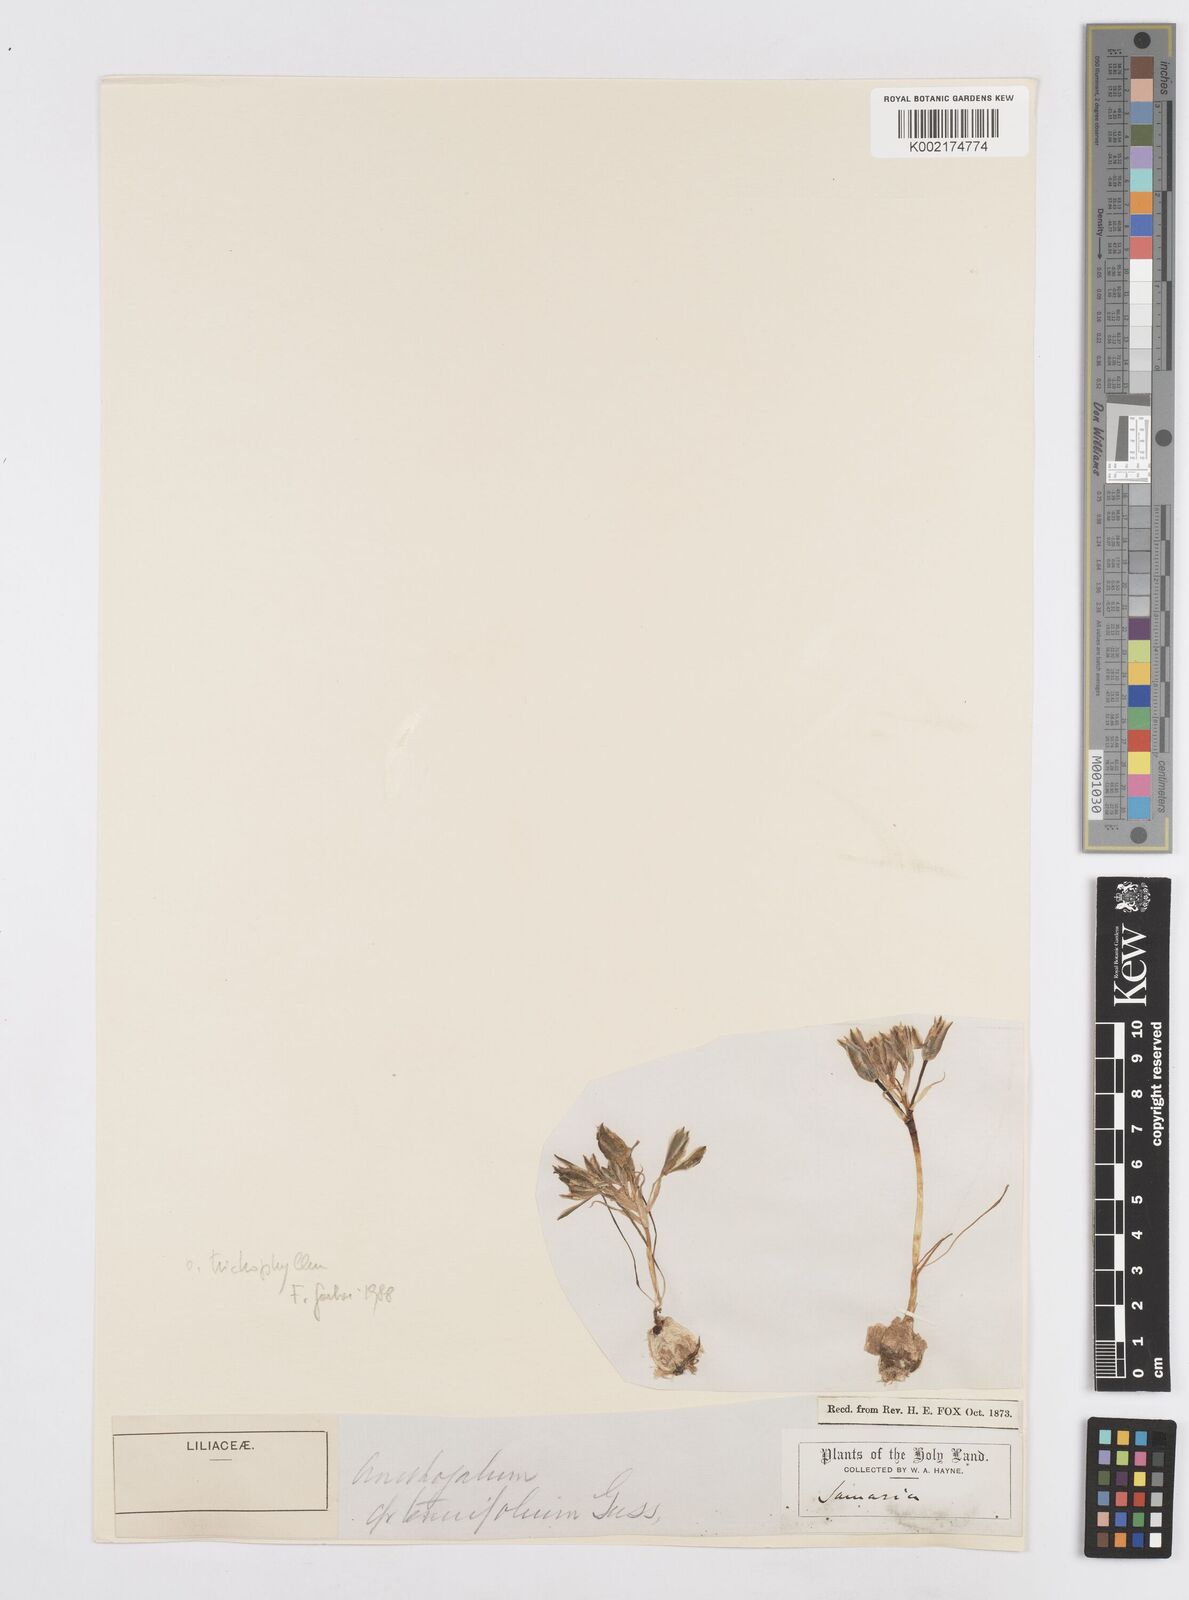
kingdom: Plantae
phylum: Tracheophyta
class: Liliopsida
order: Asparagales
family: Asparagaceae
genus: Ornithogalum
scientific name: Ornithogalum trichophyllum
